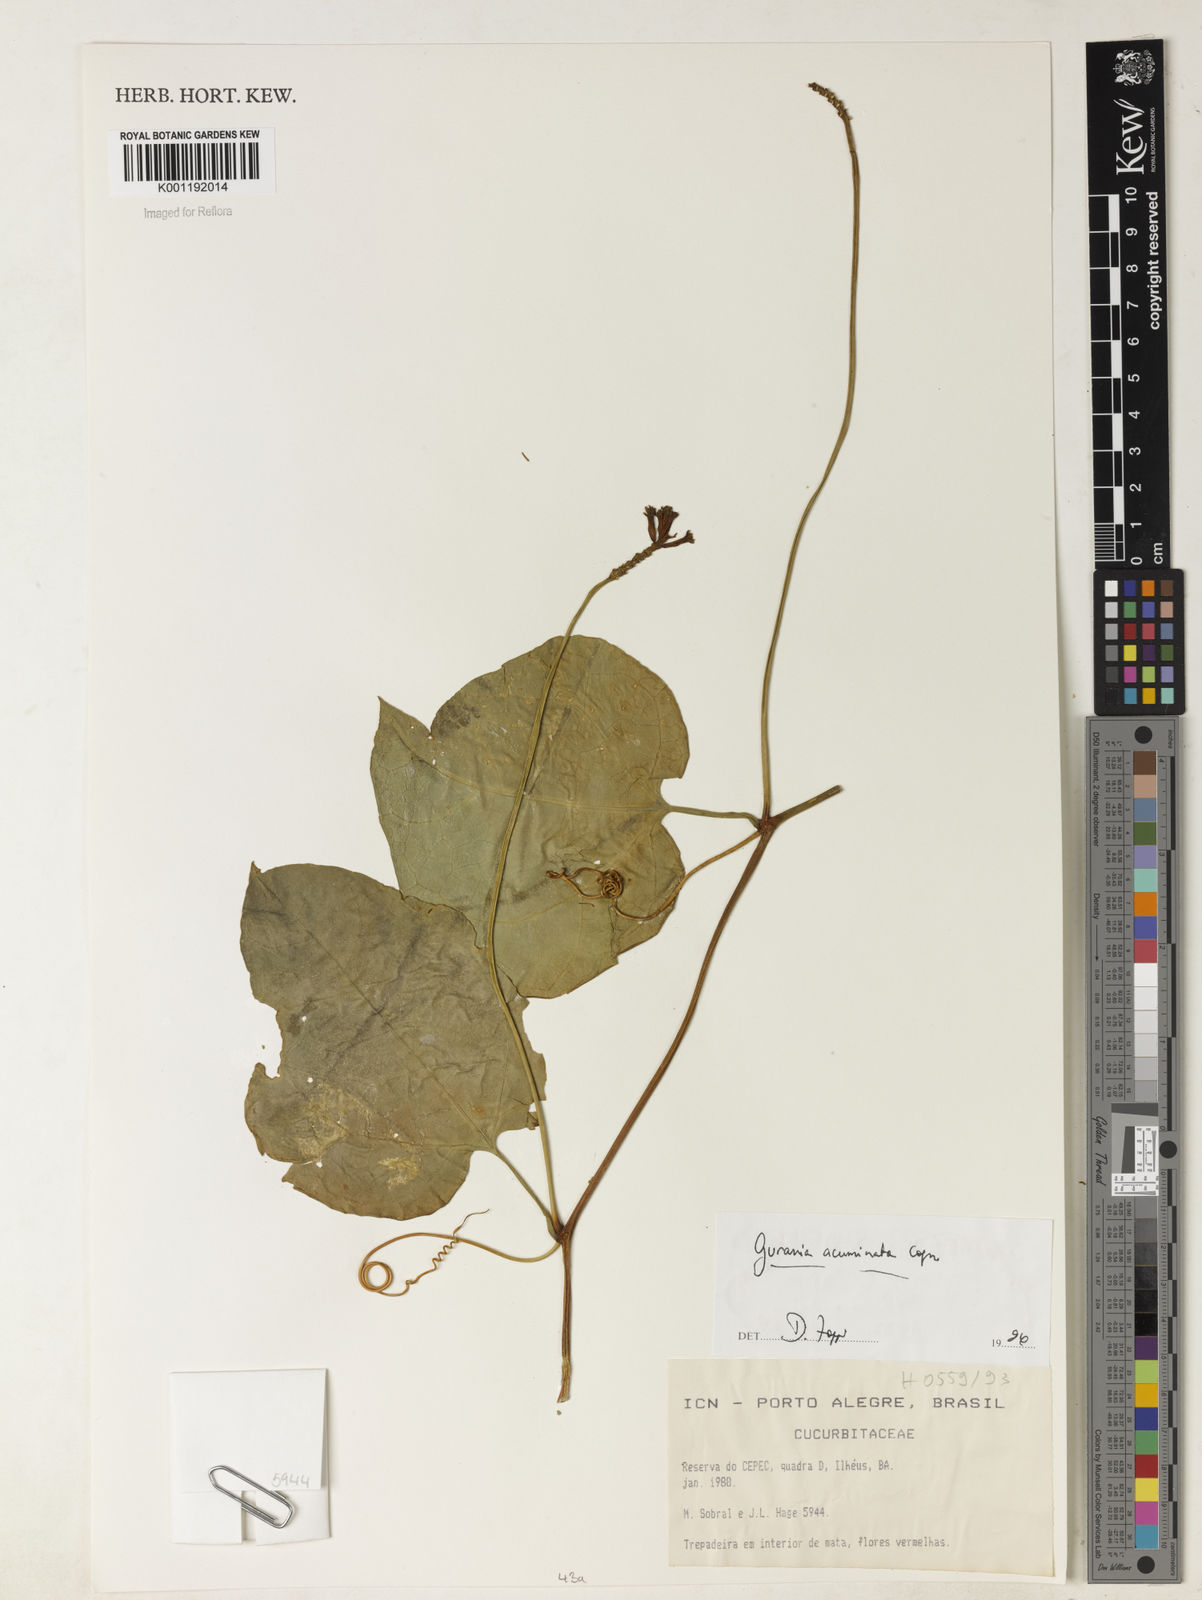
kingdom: Plantae
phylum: Tracheophyta
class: Magnoliopsida
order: Cucurbitales
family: Cucurbitaceae
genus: Gurania
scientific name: Gurania acuminata
